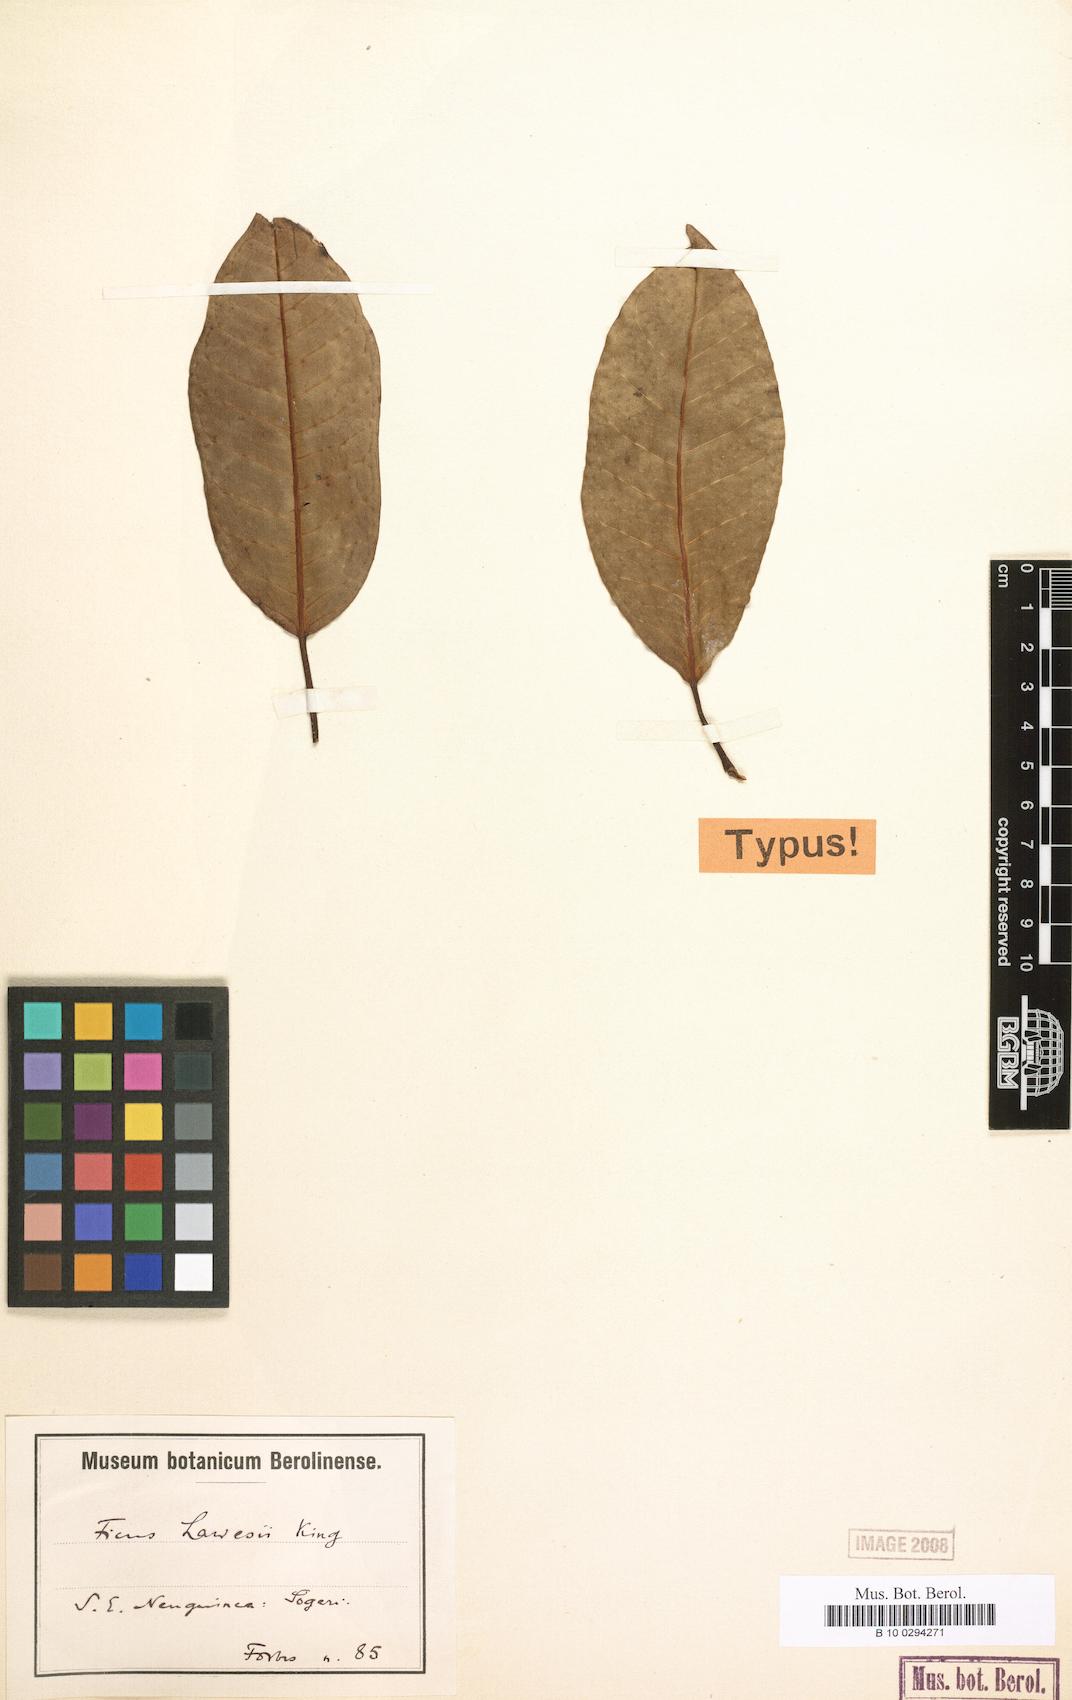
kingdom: Plantae
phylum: Tracheophyta
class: Magnoliopsida
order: Rosales
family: Moraceae
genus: Ficus
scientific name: Ficus lawesii
